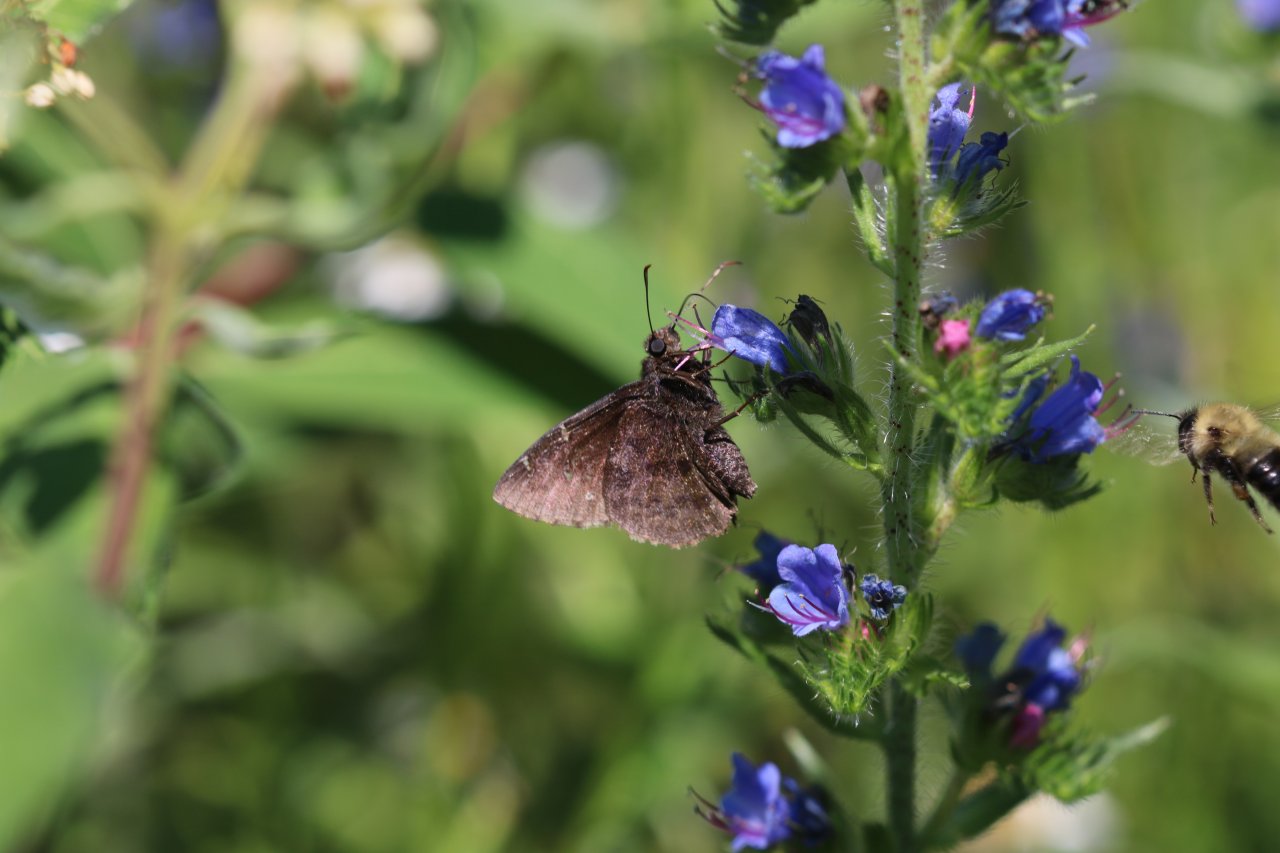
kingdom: Animalia
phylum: Arthropoda
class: Insecta
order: Lepidoptera
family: Hesperiidae
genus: Autochton
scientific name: Autochton
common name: Northern Cloudywing
